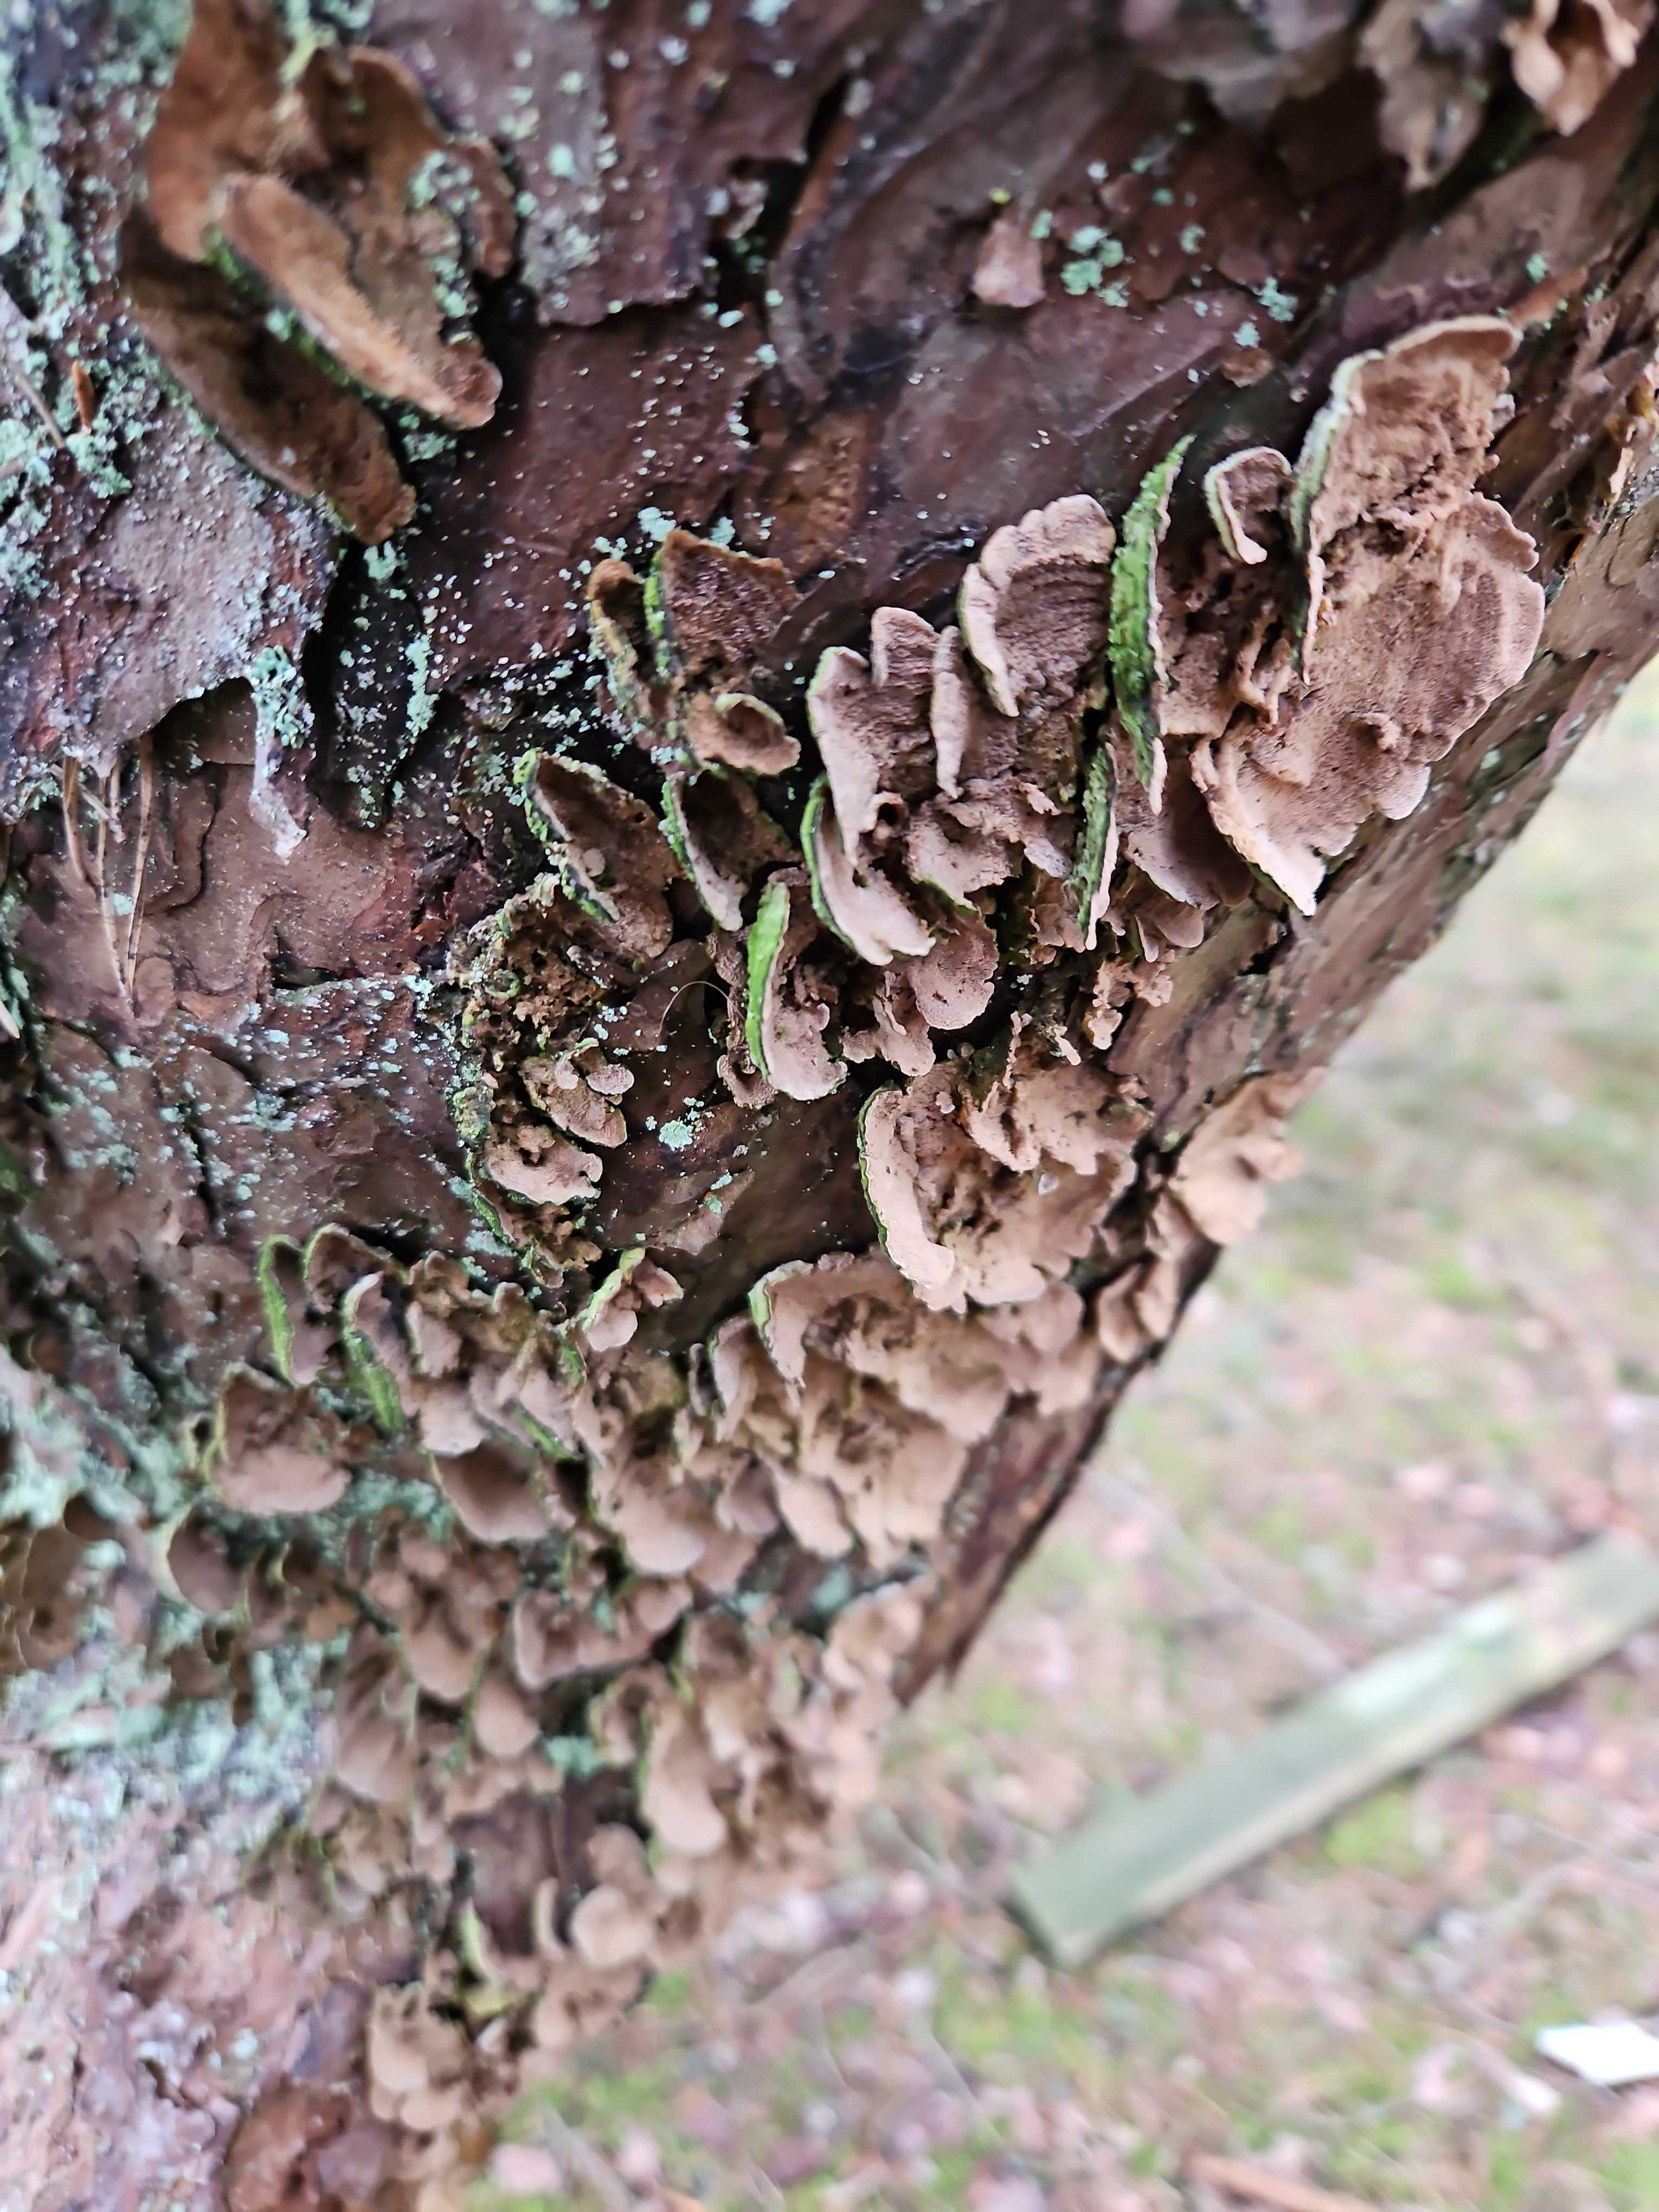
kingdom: Fungi
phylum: Basidiomycota
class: Agaricomycetes
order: Hymenochaetales
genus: Trichaptum
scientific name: Trichaptum abietinum
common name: almindelig violporesvamp
